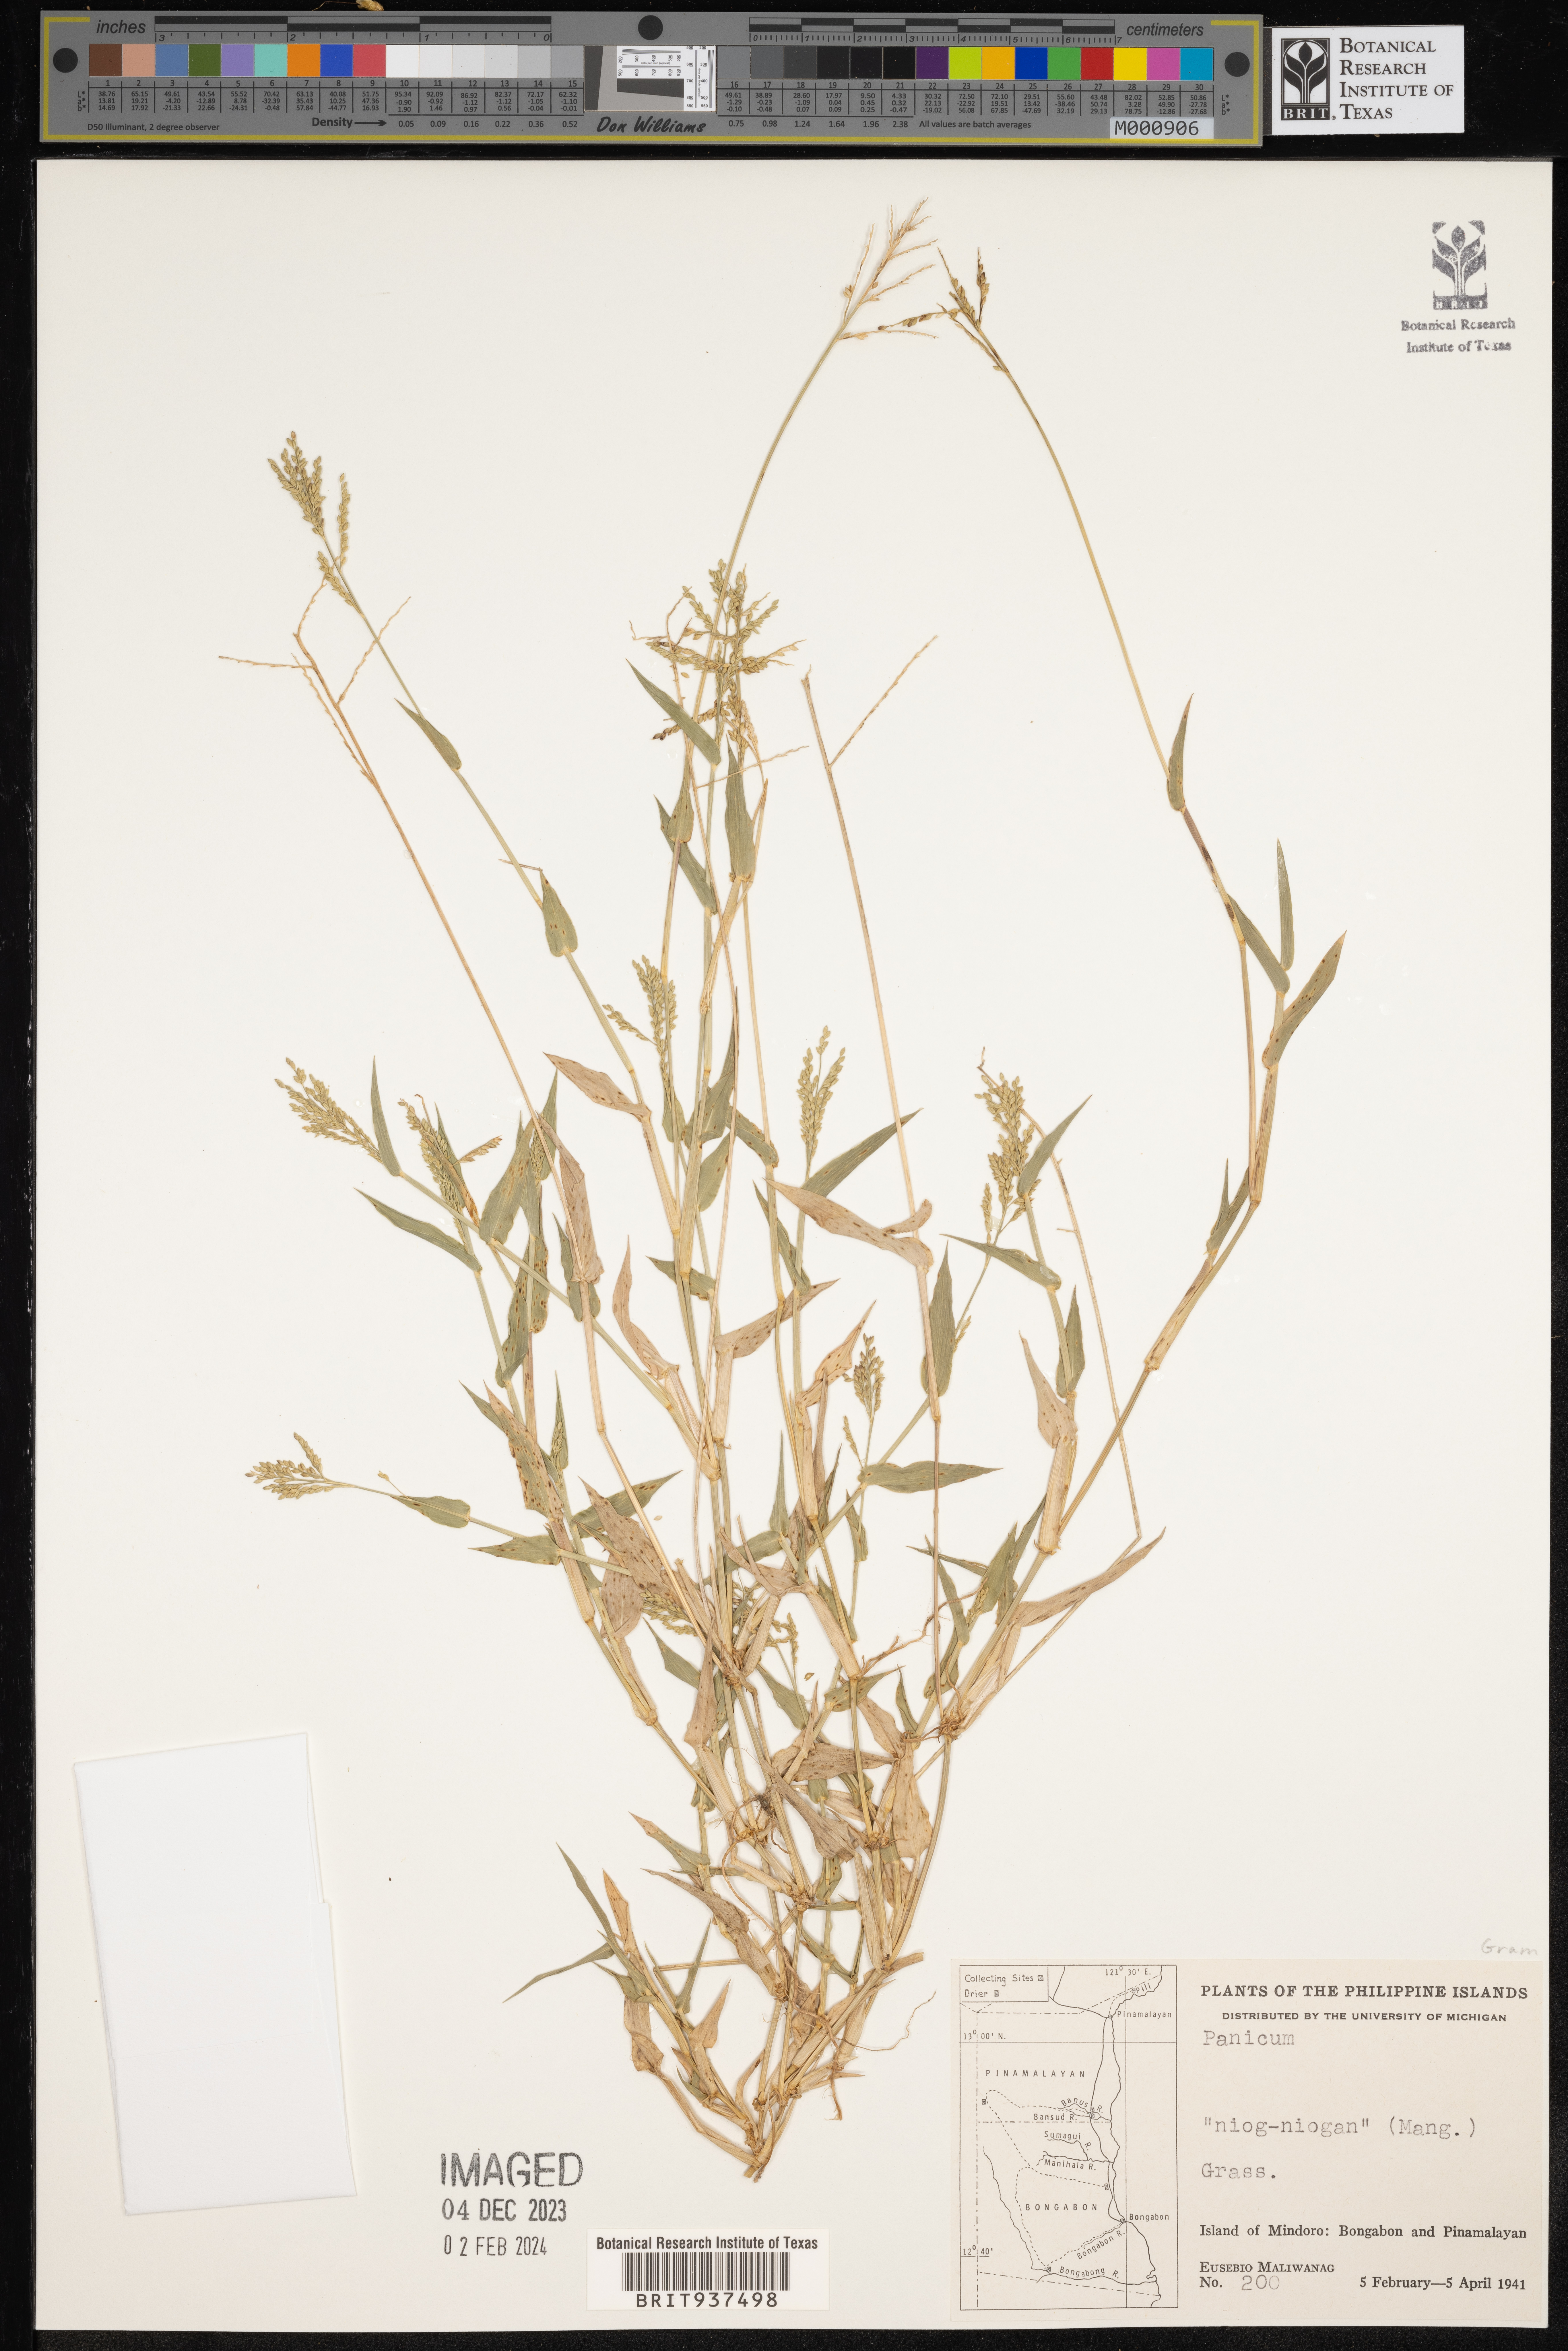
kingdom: Plantae
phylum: Tracheophyta
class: Liliopsida
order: Poales
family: Poaceae
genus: Panicum
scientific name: Panicum
